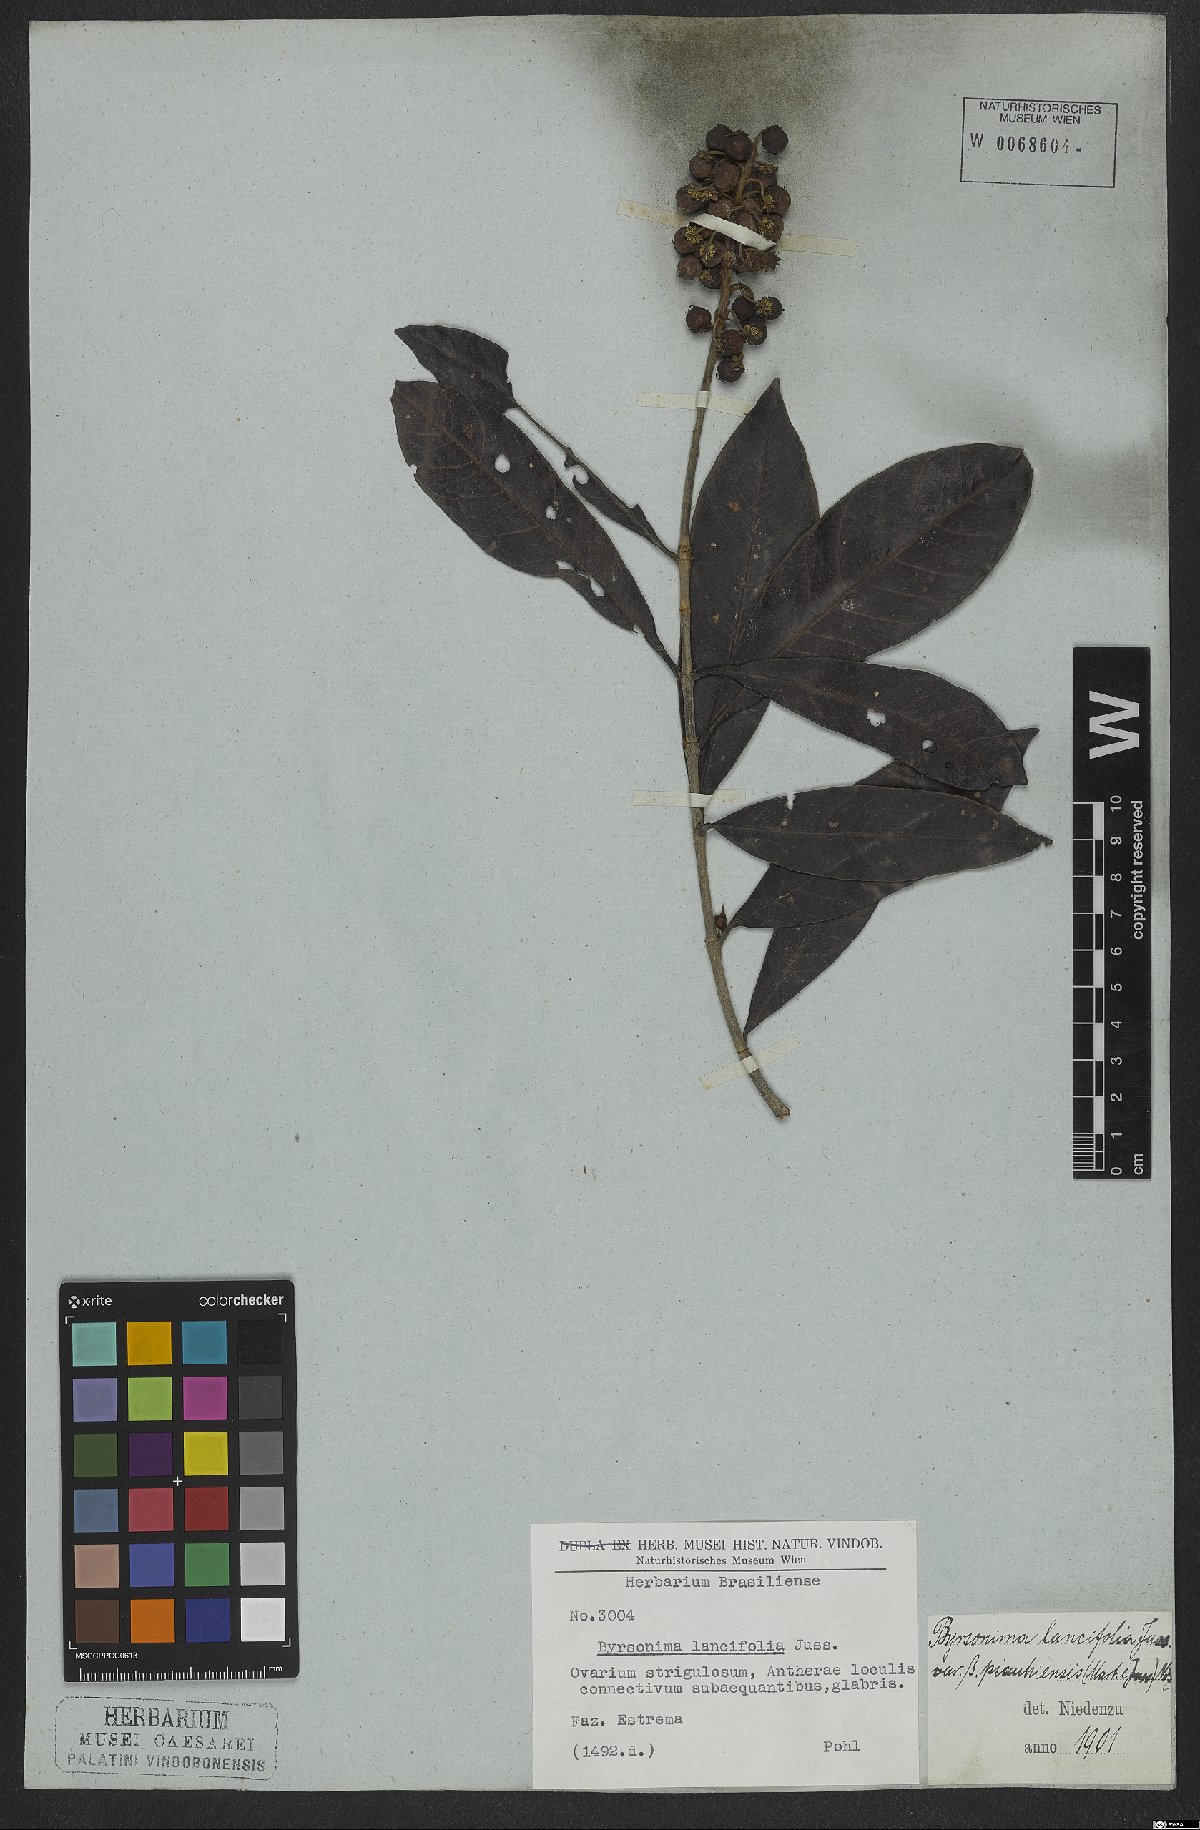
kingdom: Plantae
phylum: Tracheophyta
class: Magnoliopsida
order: Malpighiales
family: Malpighiaceae
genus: Byrsonima
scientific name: Byrsonima lancifolia
